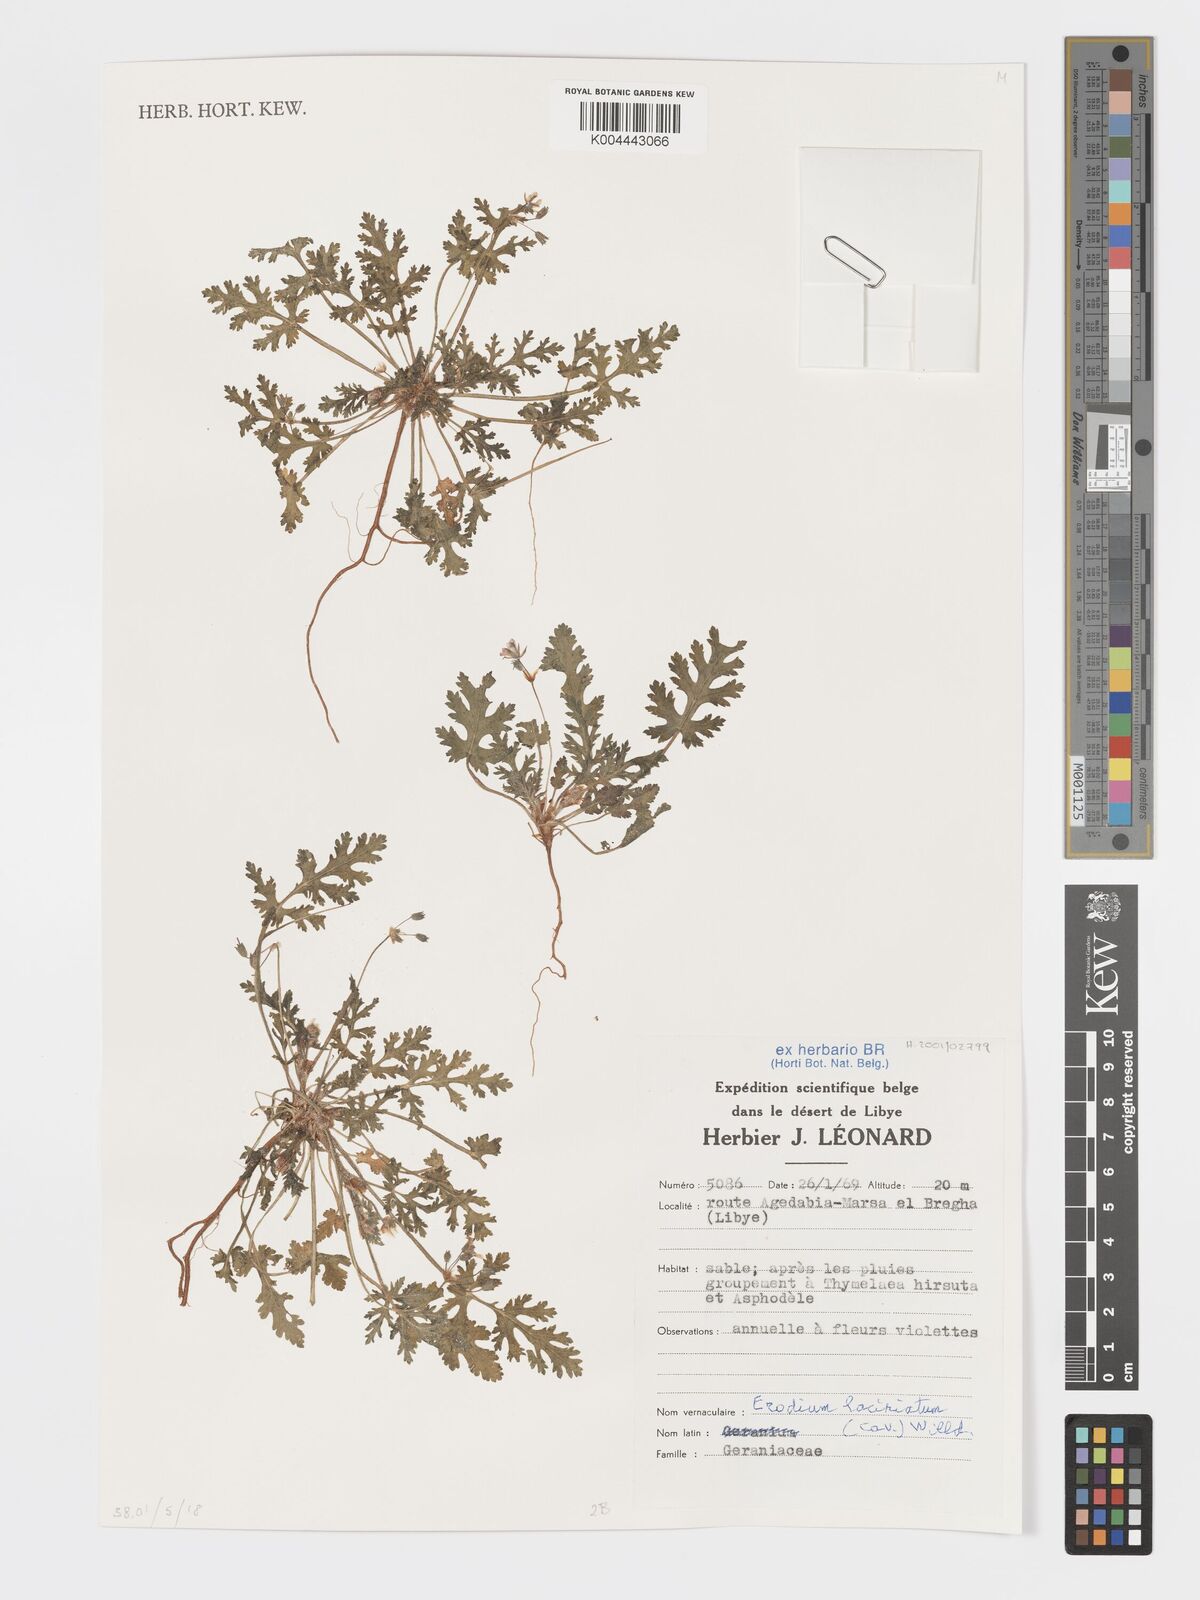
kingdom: Plantae
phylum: Tracheophyta
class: Magnoliopsida
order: Geraniales
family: Geraniaceae
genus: Erodium
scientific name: Erodium laciniatum
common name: Cutleaf stork's bill
